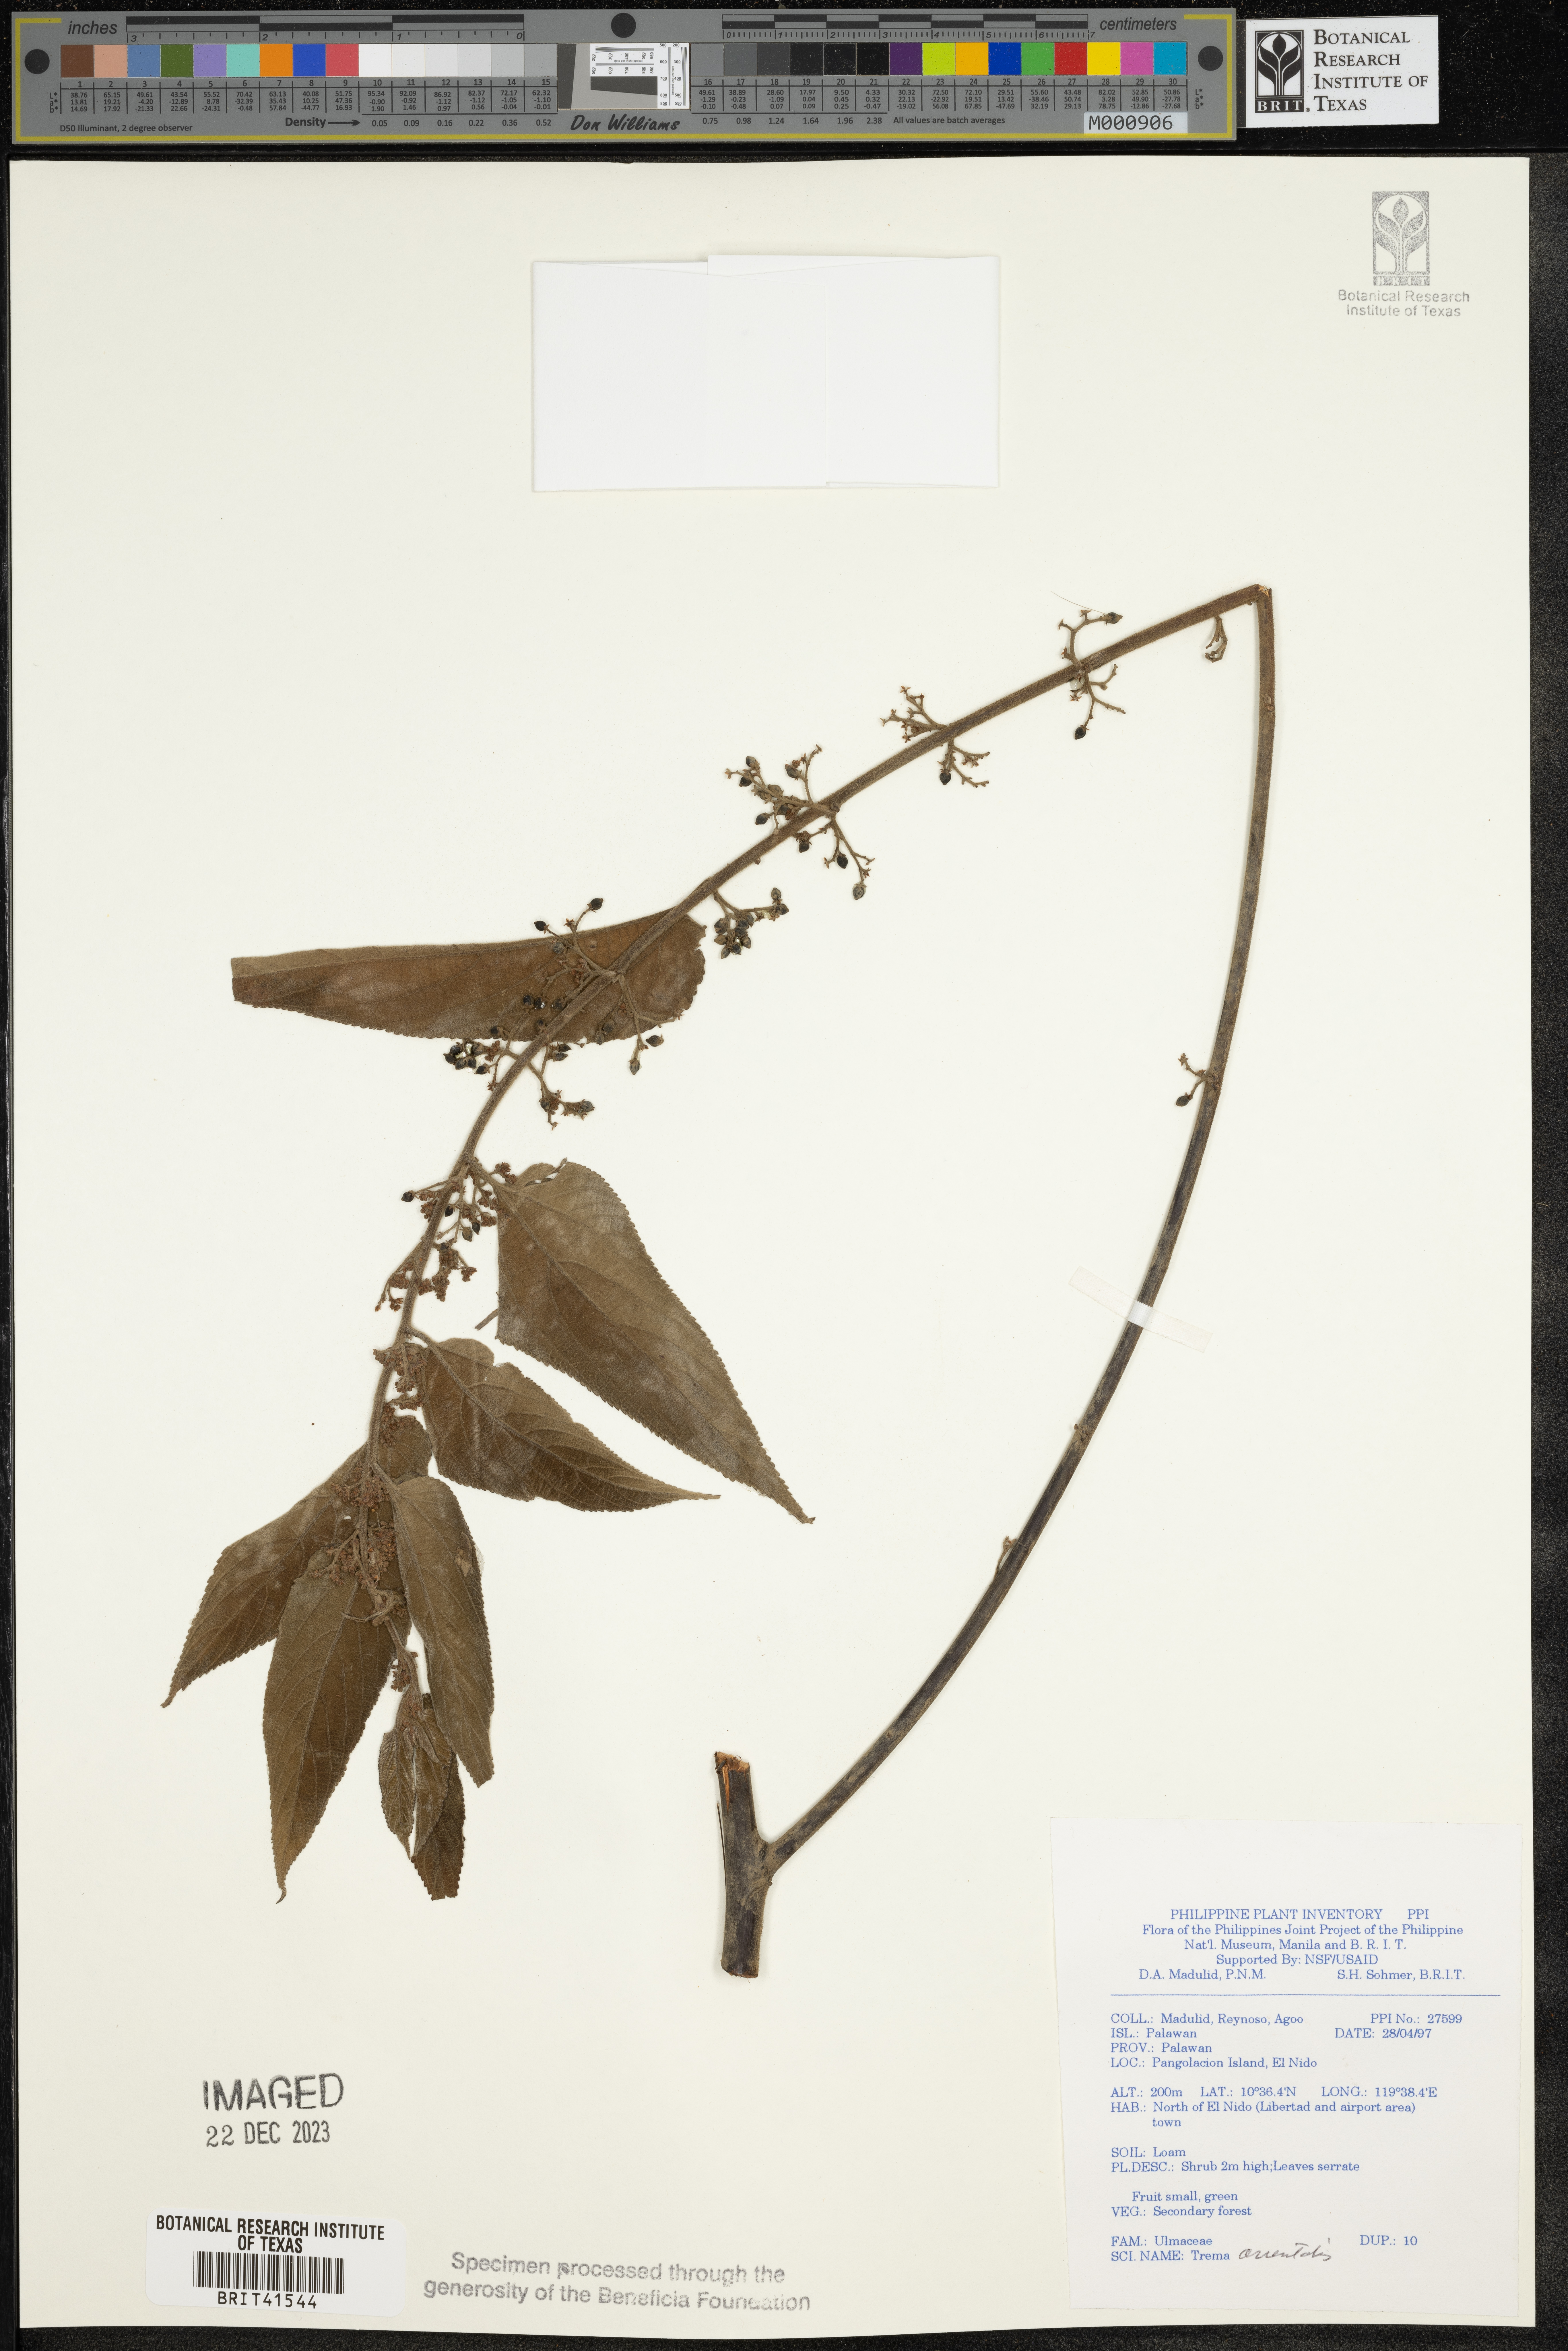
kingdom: Plantae
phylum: Tracheophyta
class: Magnoliopsida
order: Rosales
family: Cannabaceae
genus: Trema
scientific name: Trema orientale
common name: Indian charcoal tree
